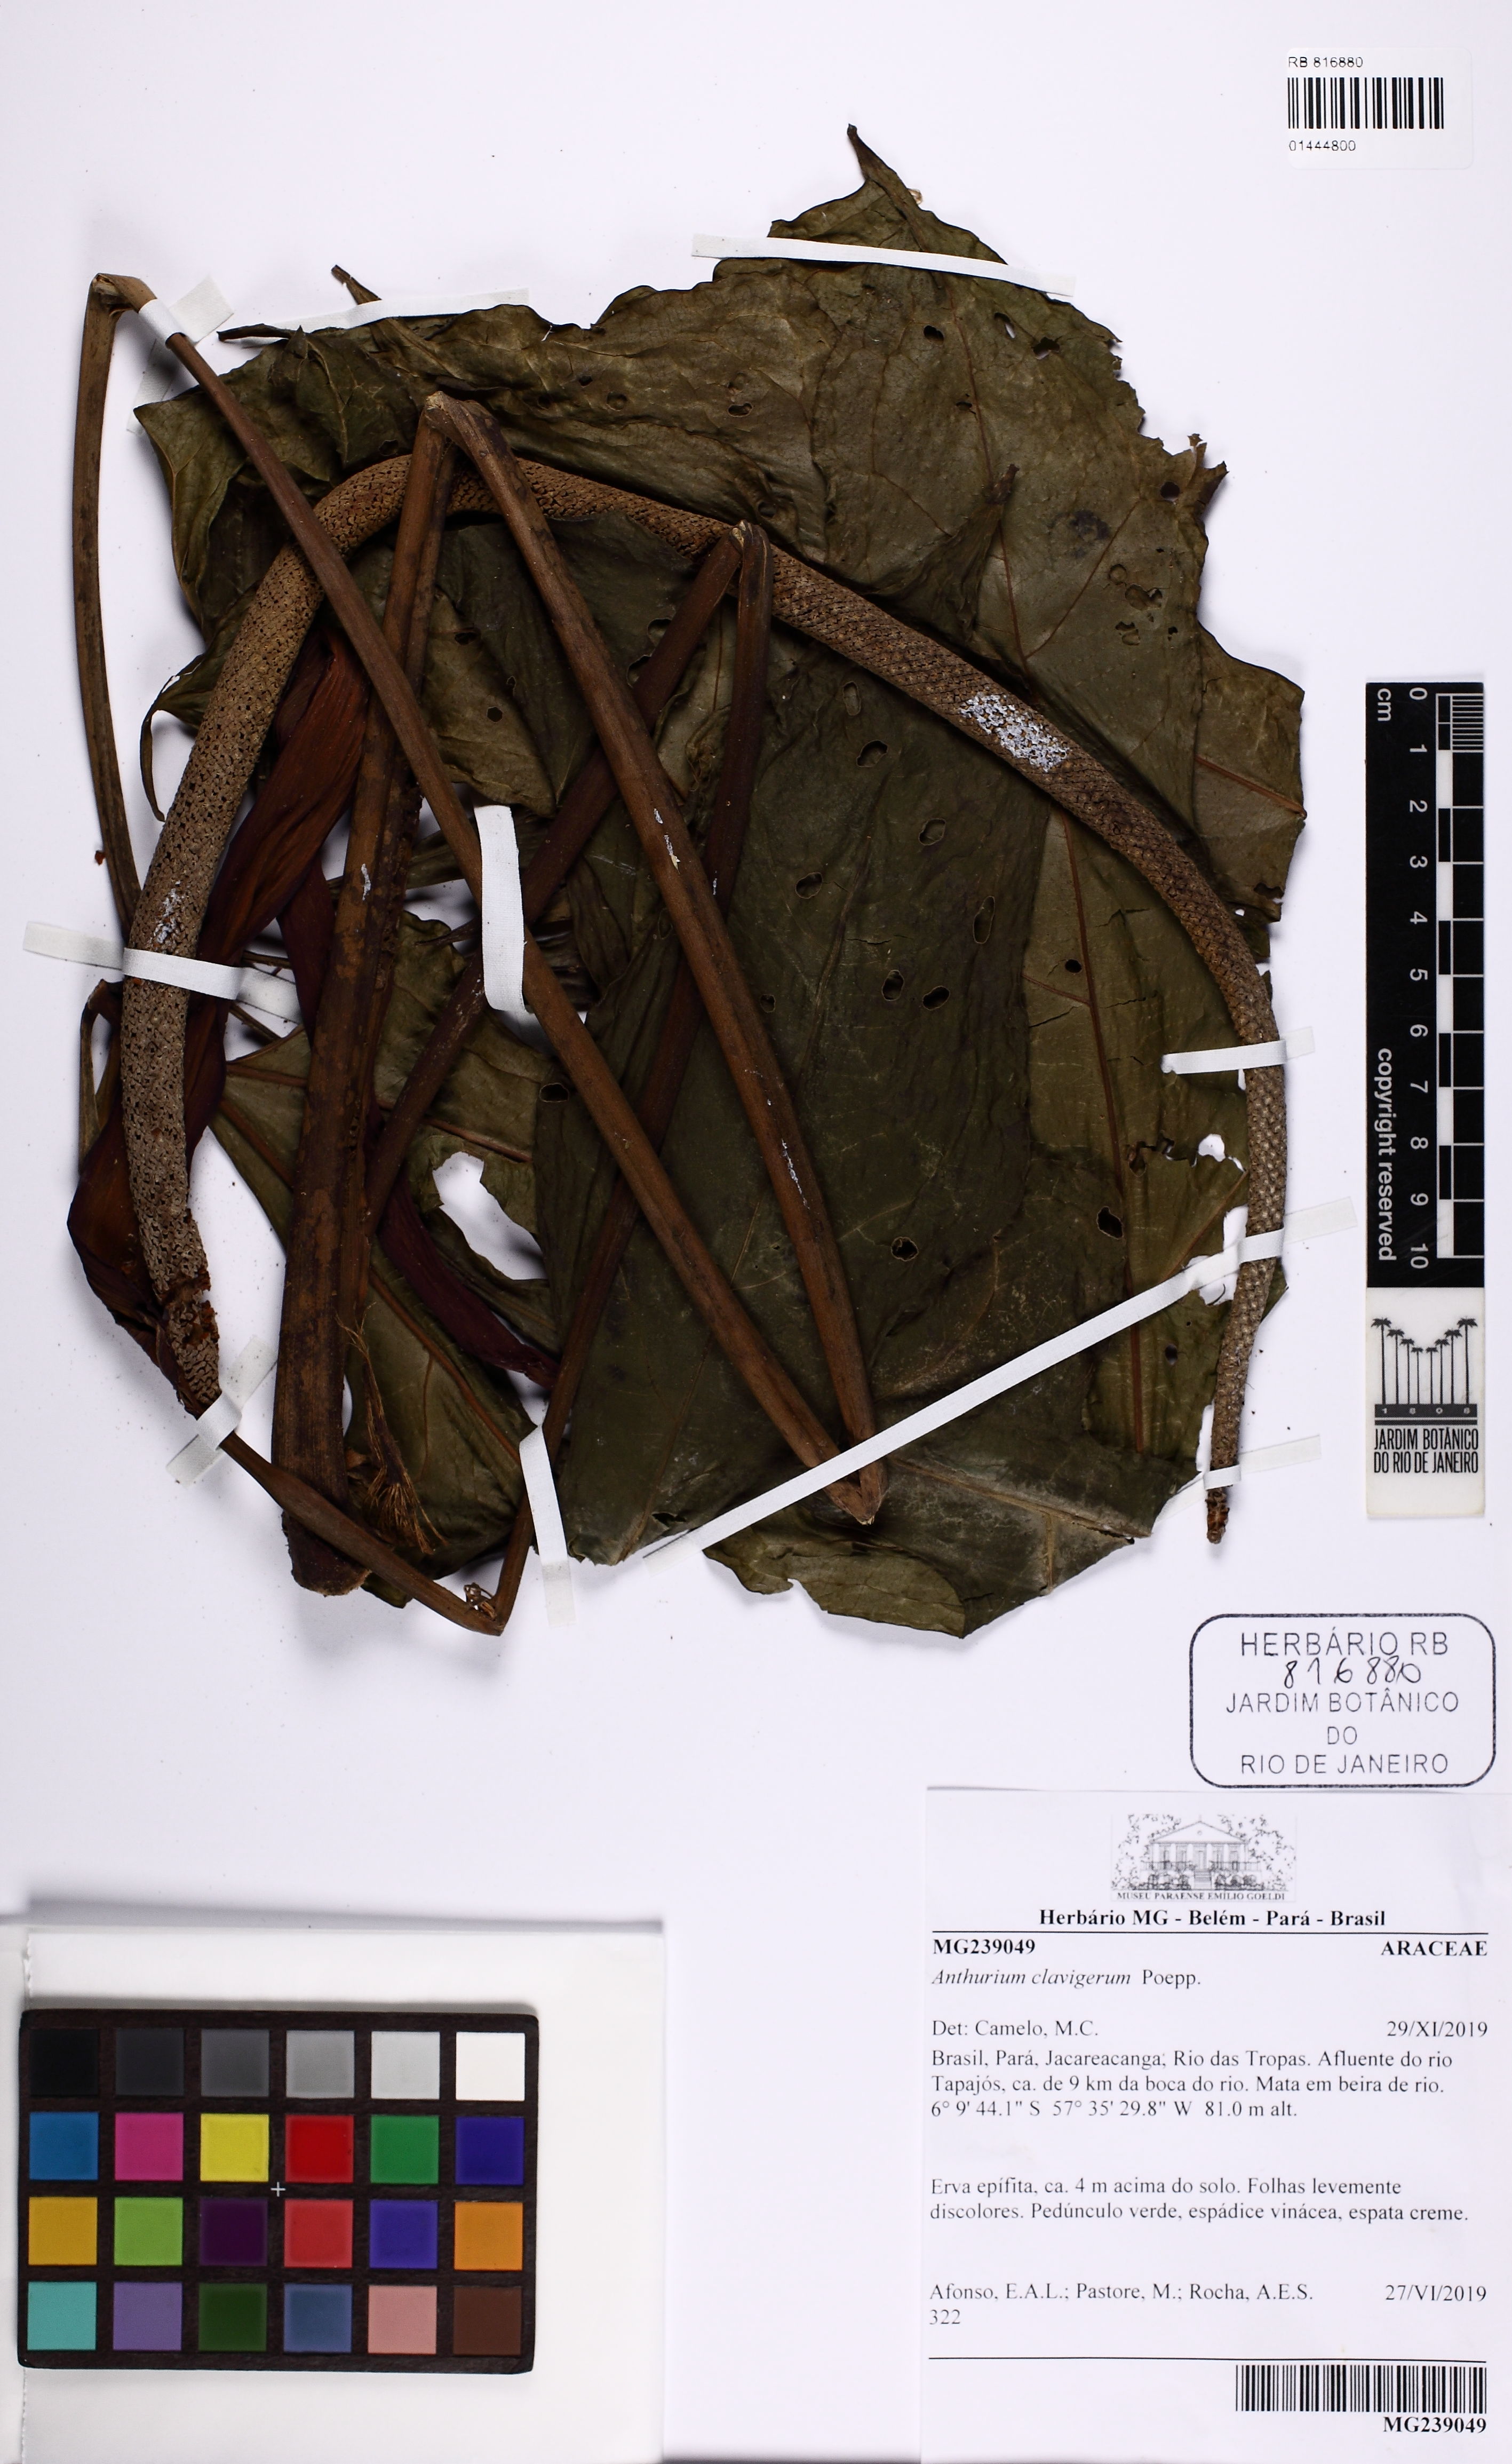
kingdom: Plantae
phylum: Tracheophyta
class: Liliopsida
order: Alismatales
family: Araceae
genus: Anthurium
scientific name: Anthurium clavigerum
